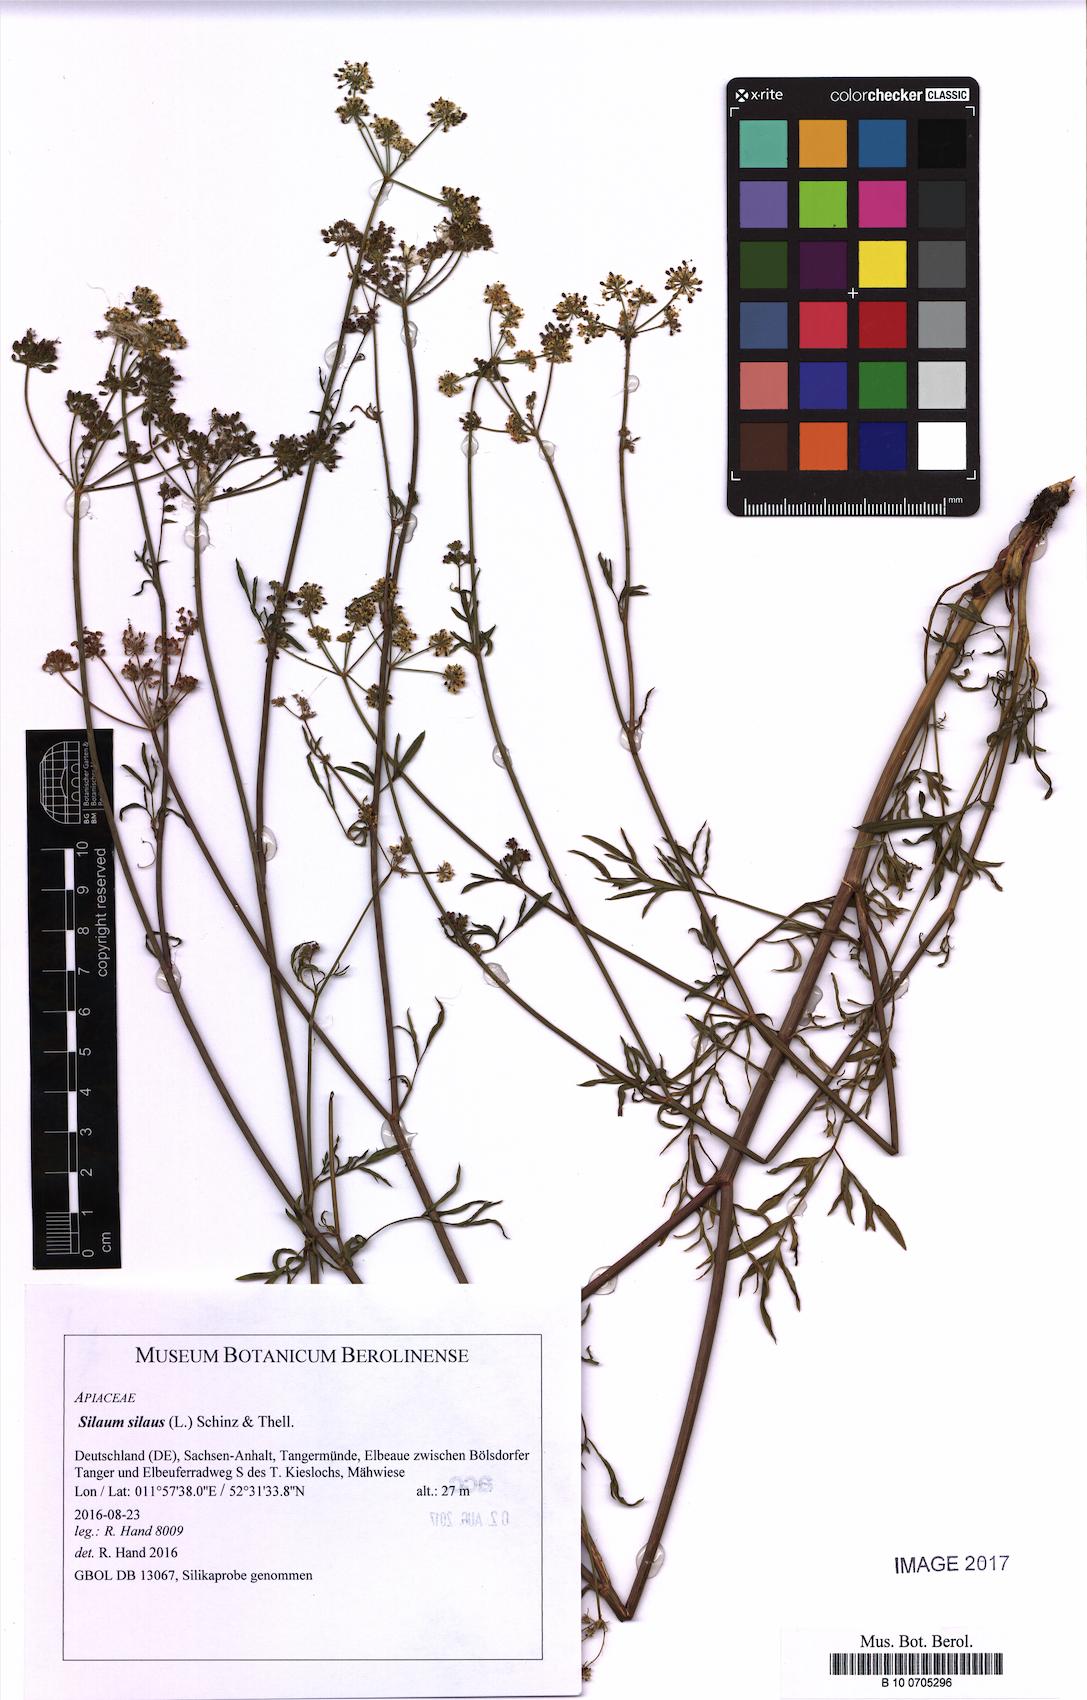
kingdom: Plantae
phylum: Tracheophyta
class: Magnoliopsida
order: Apiales
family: Apiaceae
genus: Silaum
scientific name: Silaum silaus
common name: Pepper-saxifrage
